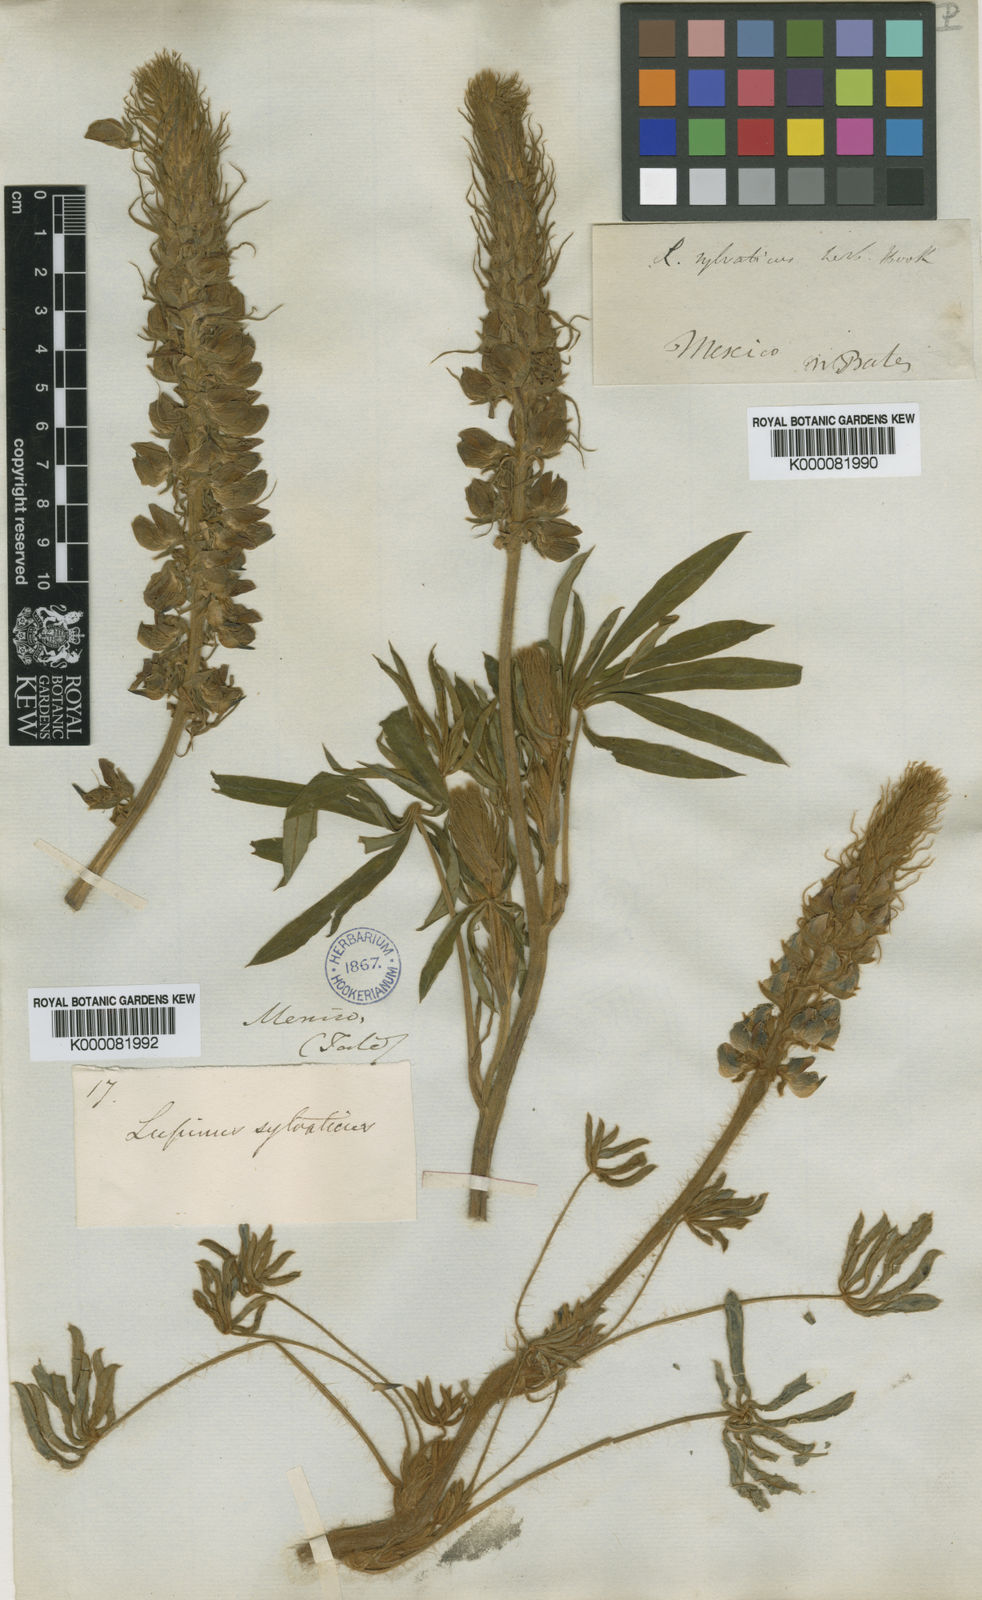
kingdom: Plantae
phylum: Tracheophyta
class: Magnoliopsida
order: Fabales
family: Fabaceae
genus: Lupinus
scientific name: Lupinus reflexus
